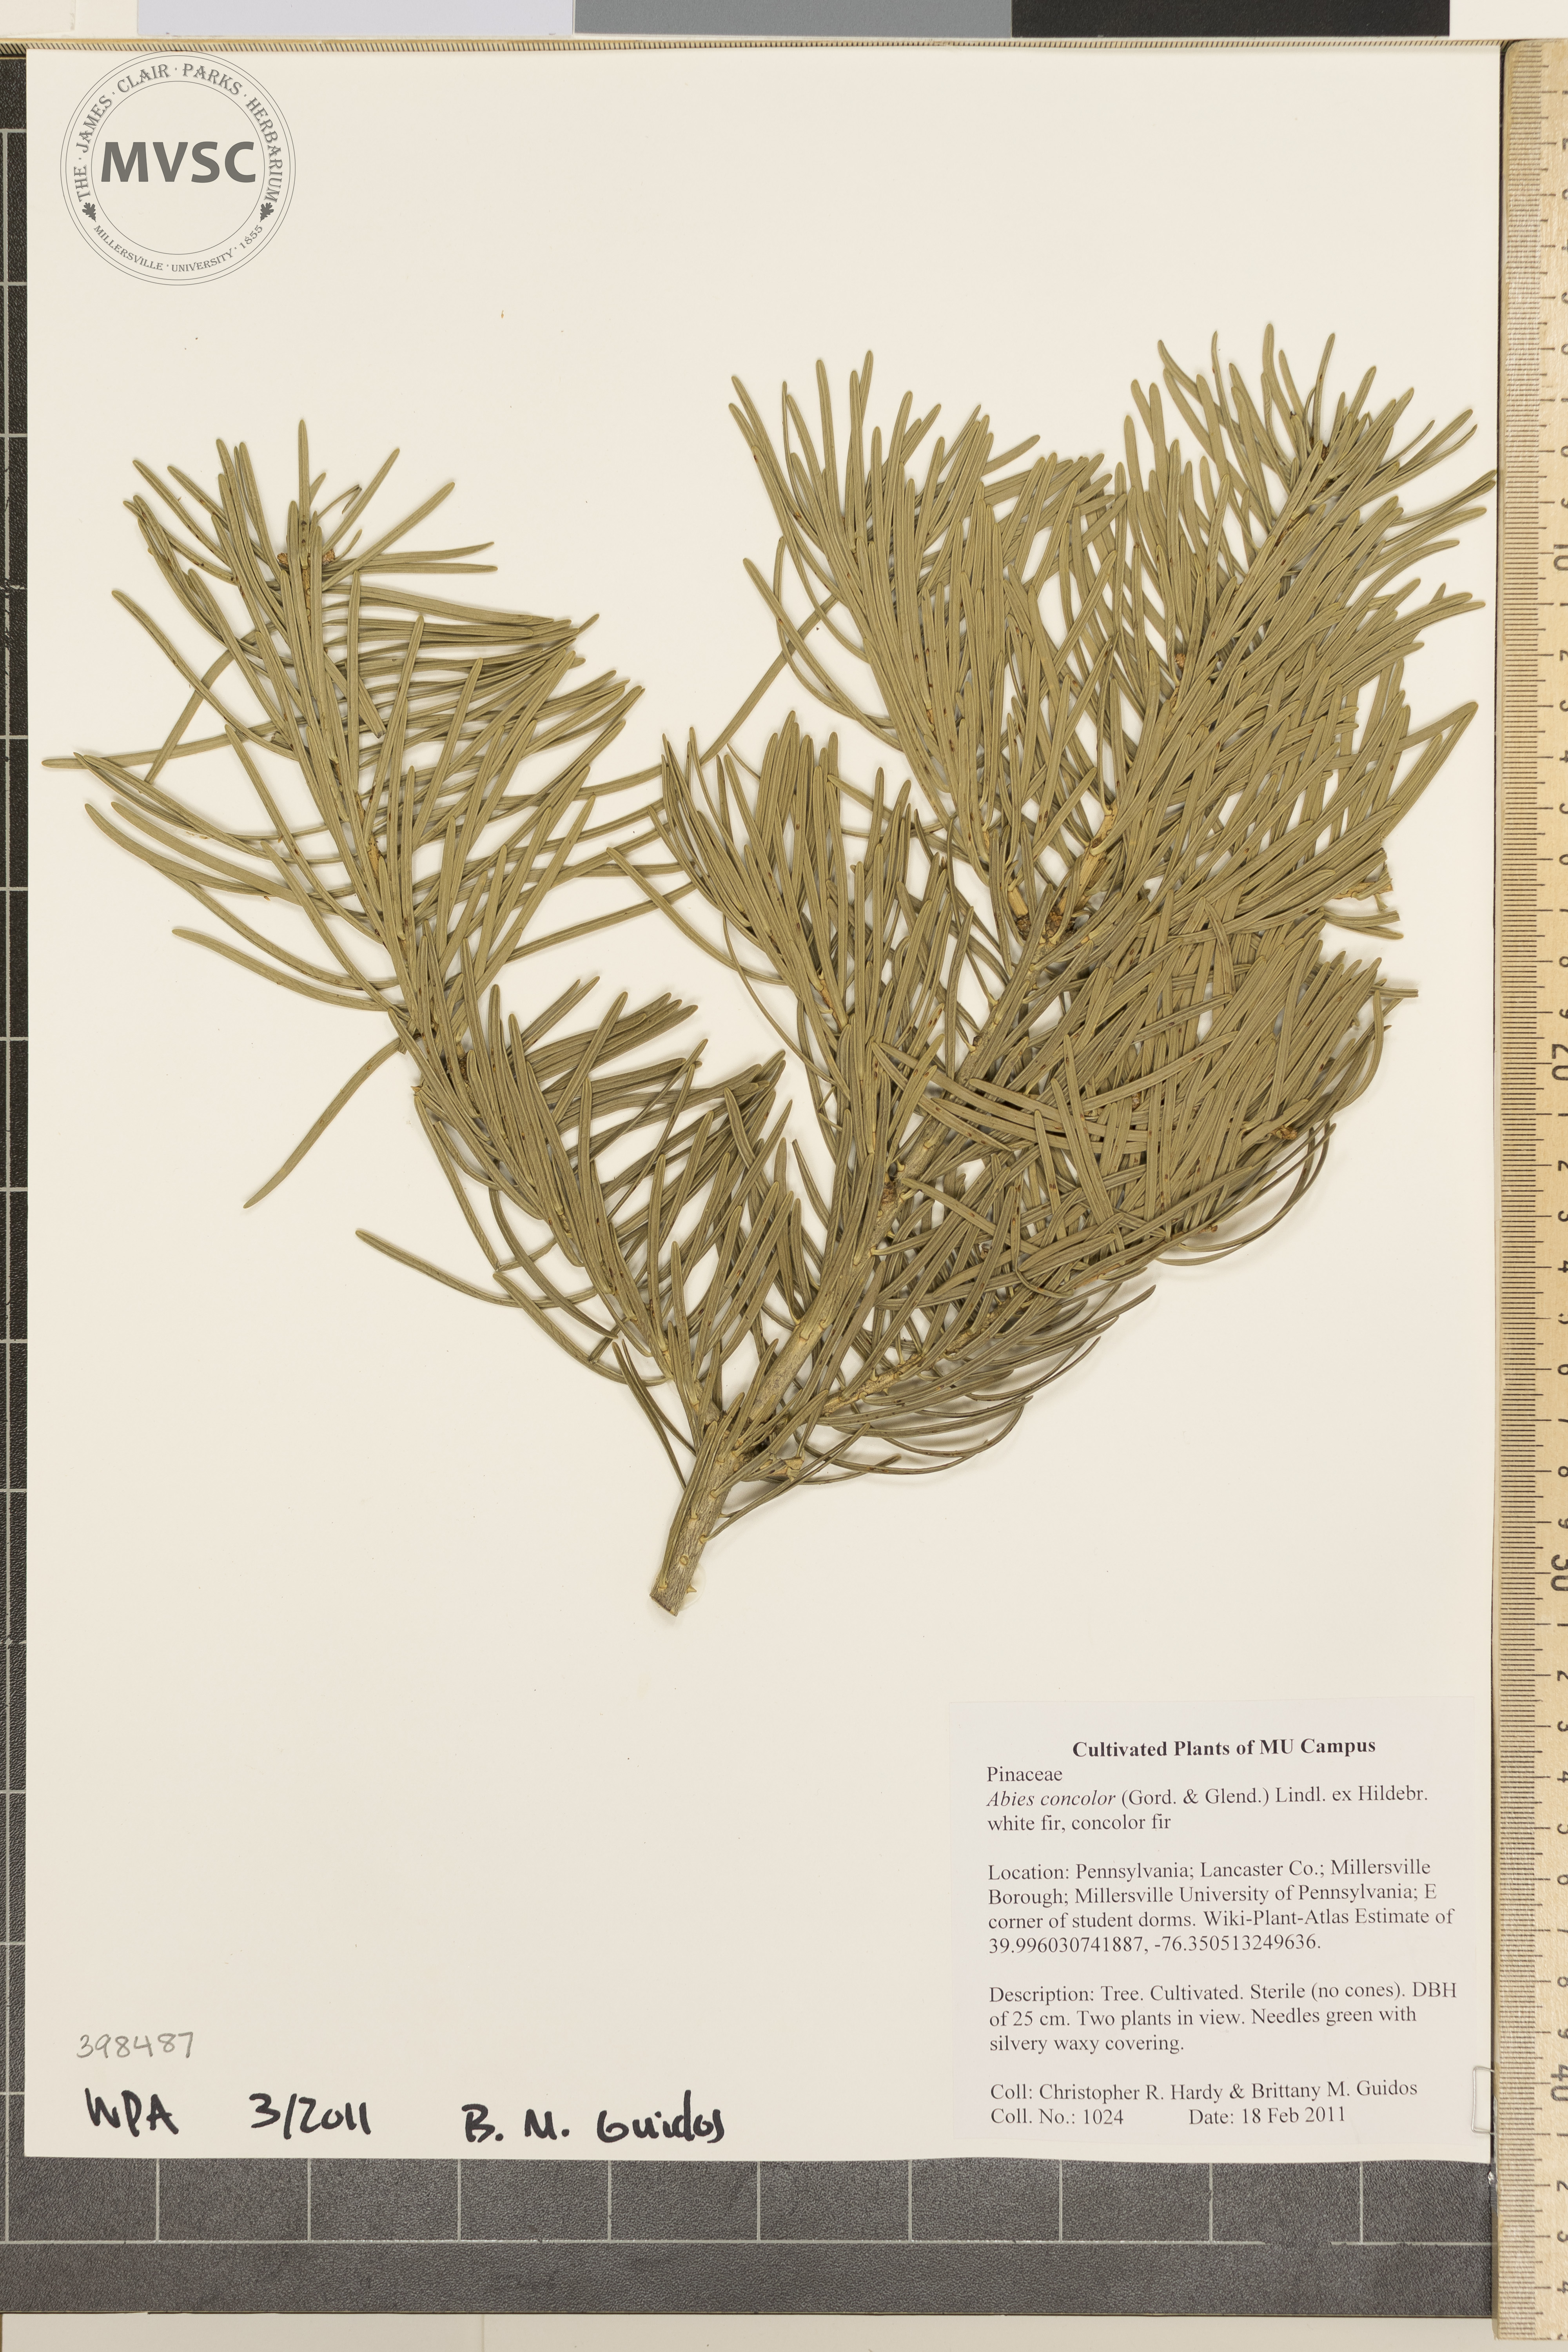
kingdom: Plantae
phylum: Tracheophyta
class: Pinopsida
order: Pinales
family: Pinaceae
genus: Abies
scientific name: Abies concolor
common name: White fir
